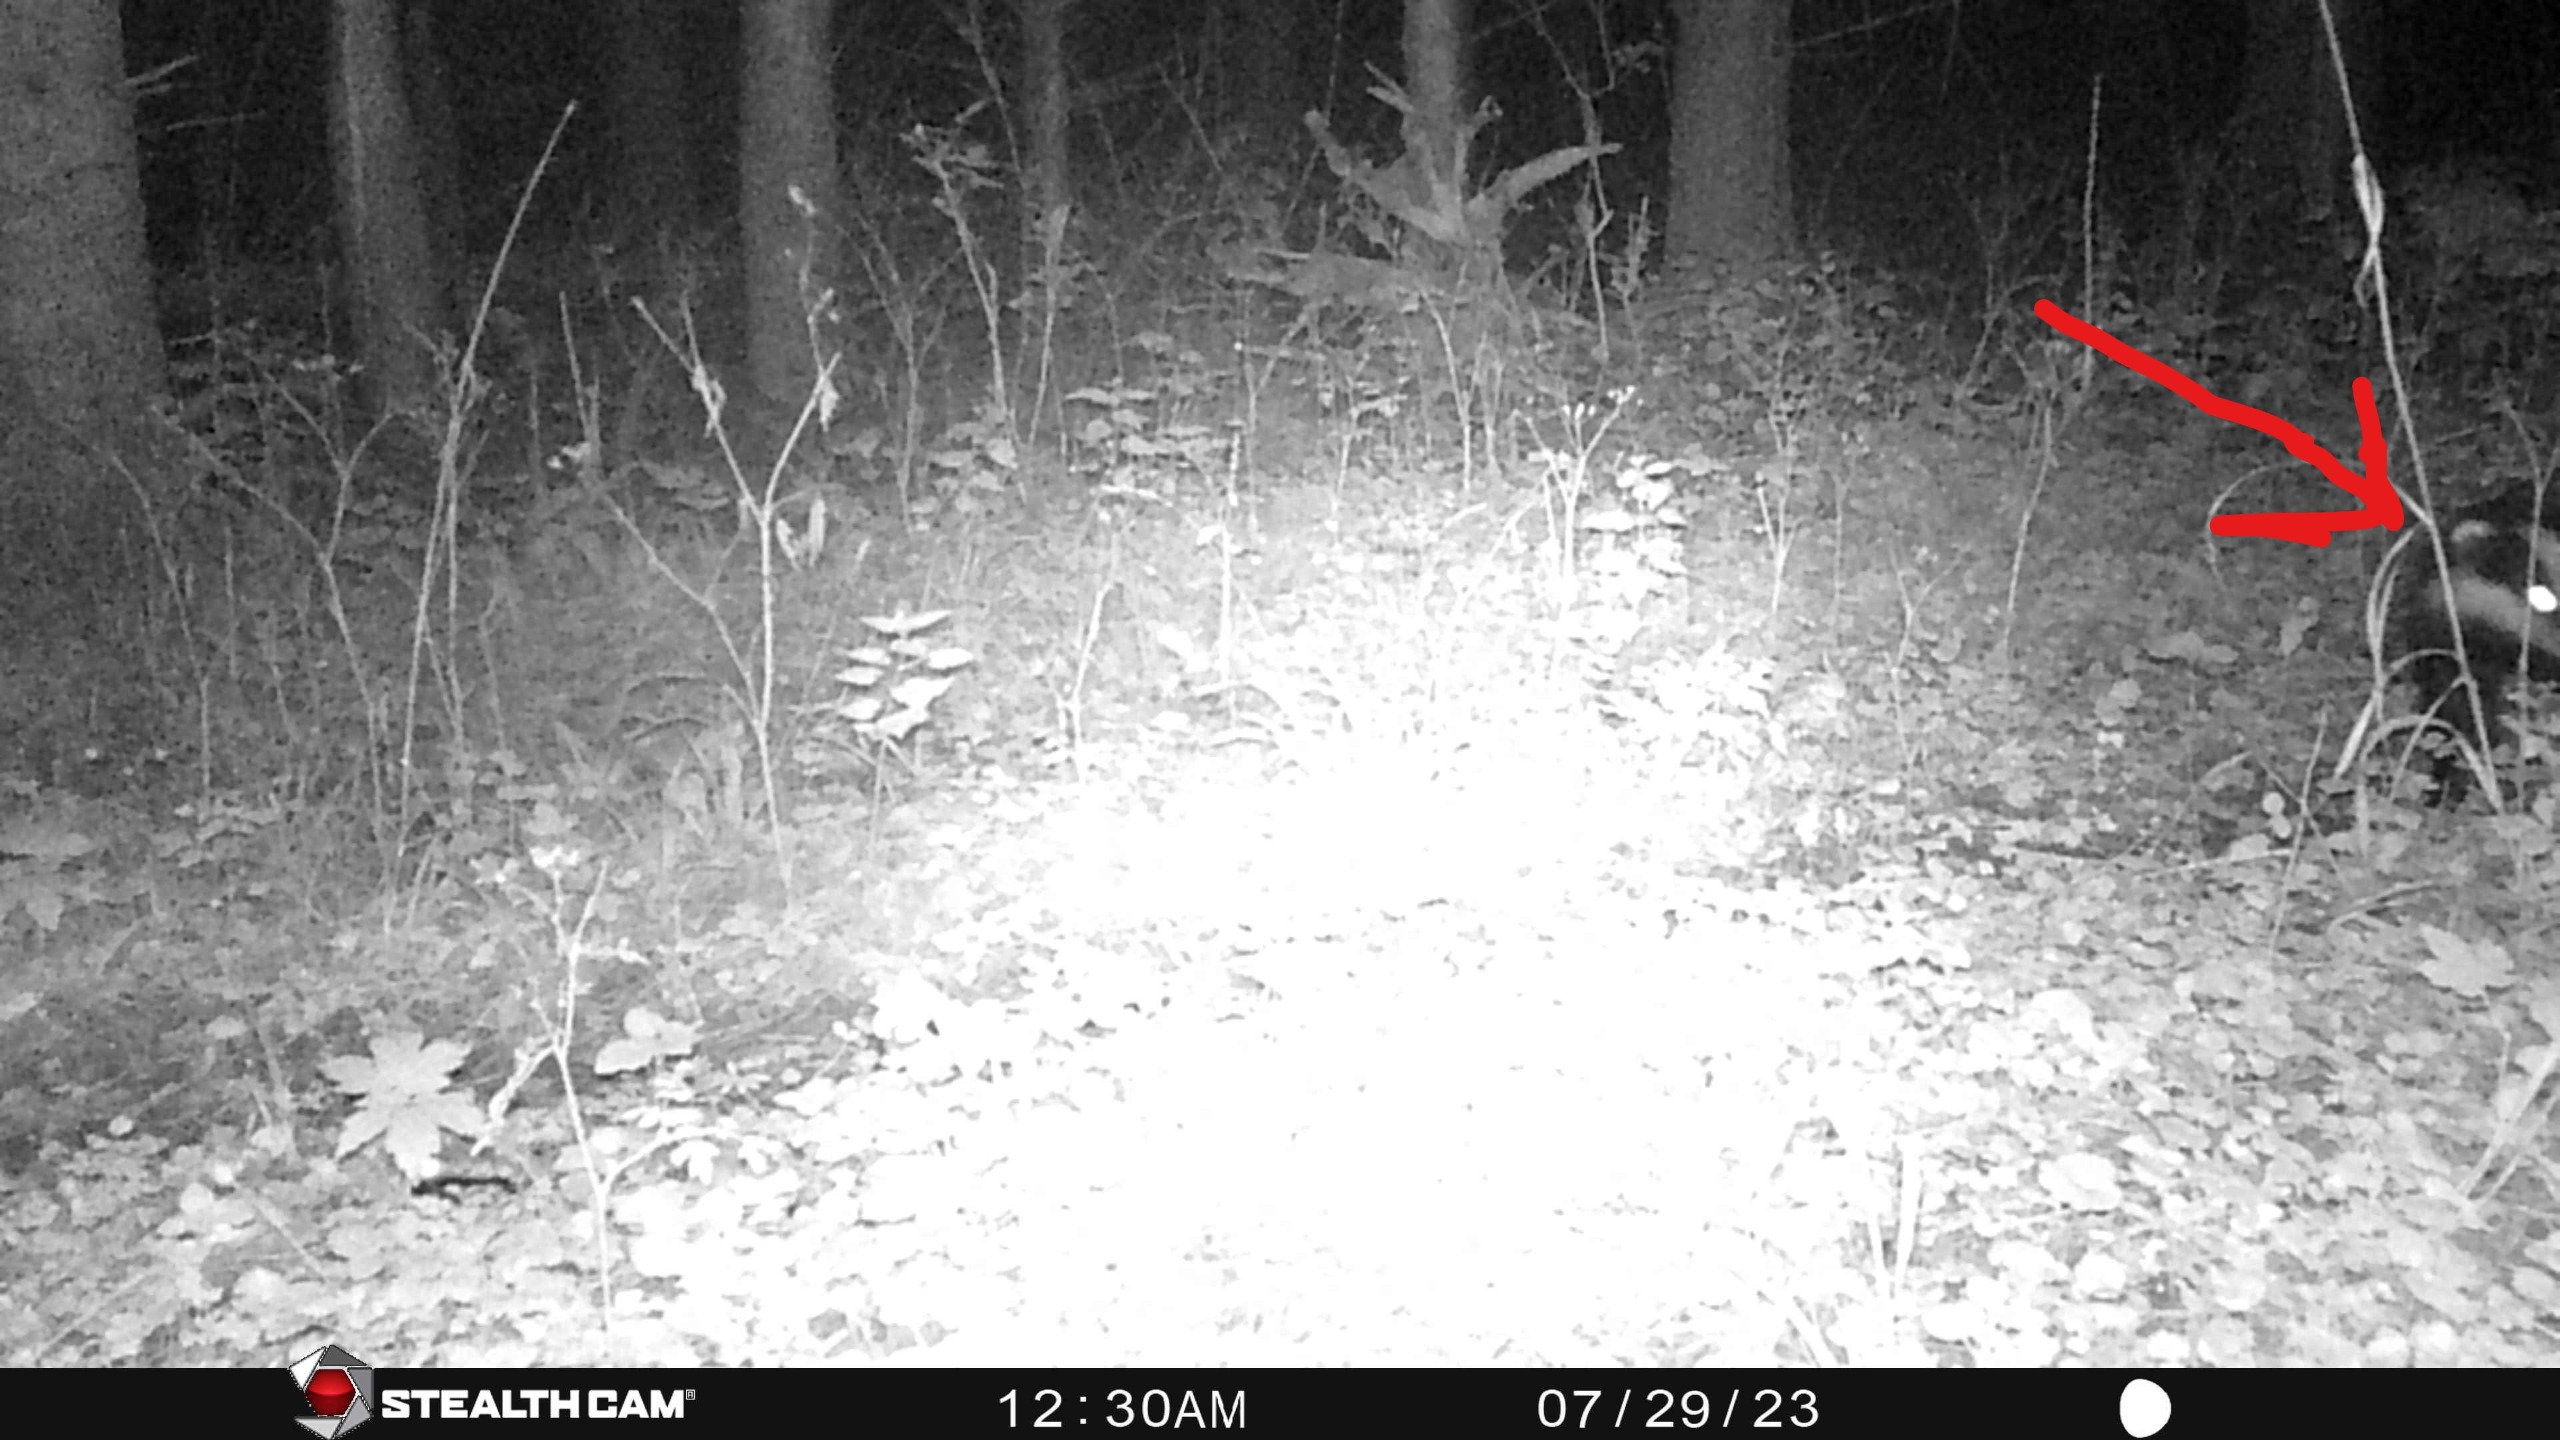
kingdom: Animalia
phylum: Chordata
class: Mammalia
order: Carnivora
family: Mustelidae
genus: Meles
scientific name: Meles meles
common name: Grævling
